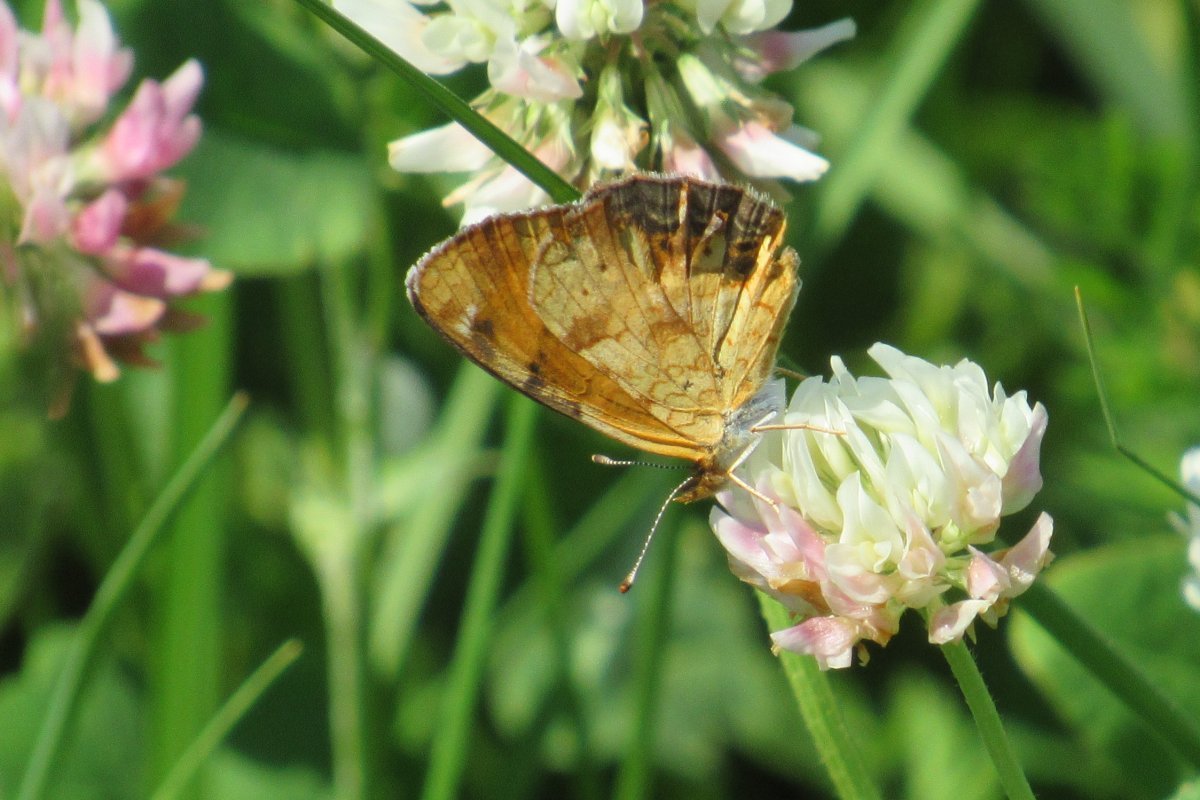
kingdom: Animalia
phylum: Arthropoda
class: Insecta
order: Lepidoptera
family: Nymphalidae
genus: Phyciodes
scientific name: Phyciodes tharos
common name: Northern Crescent
